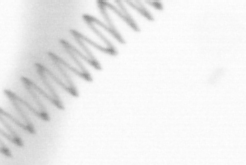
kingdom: Chromista
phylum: Ochrophyta
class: Bacillariophyceae
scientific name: Bacillariophyceae
